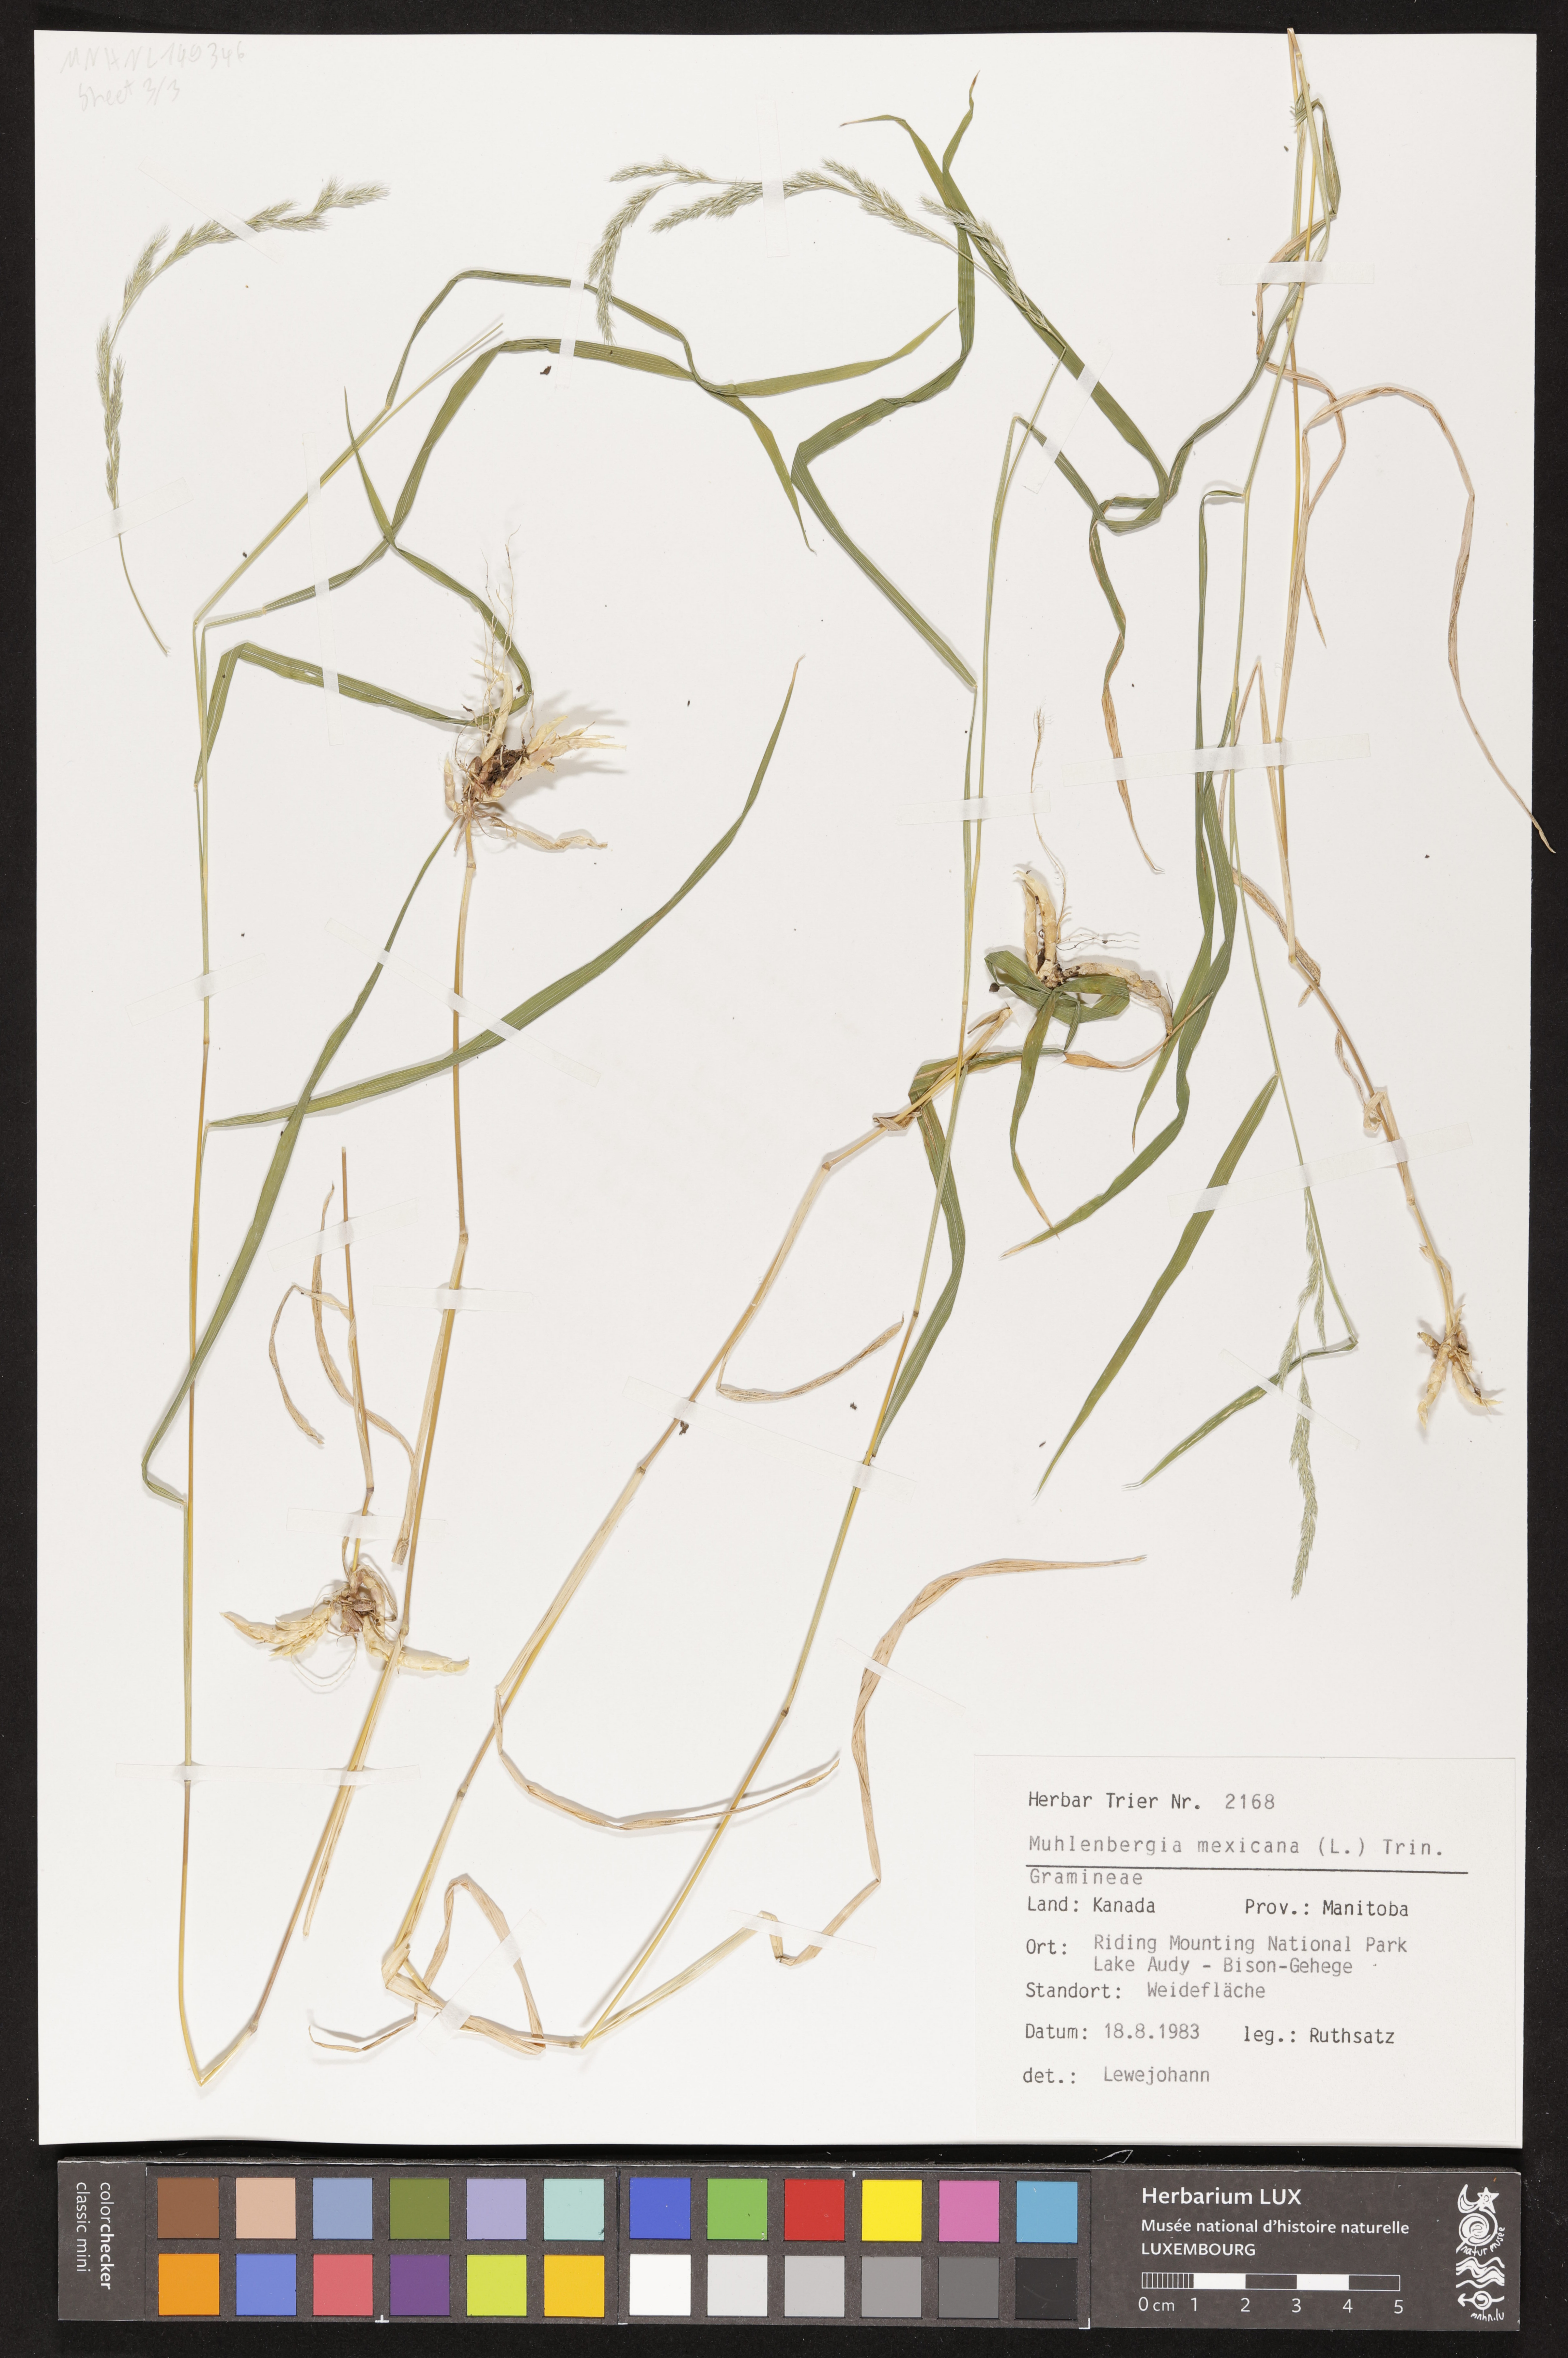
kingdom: Plantae
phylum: Tracheophyta
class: Liliopsida
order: Poales
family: Poaceae
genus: Muhlenbergia
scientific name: Muhlenbergia mexicana
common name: Mexican muhly
